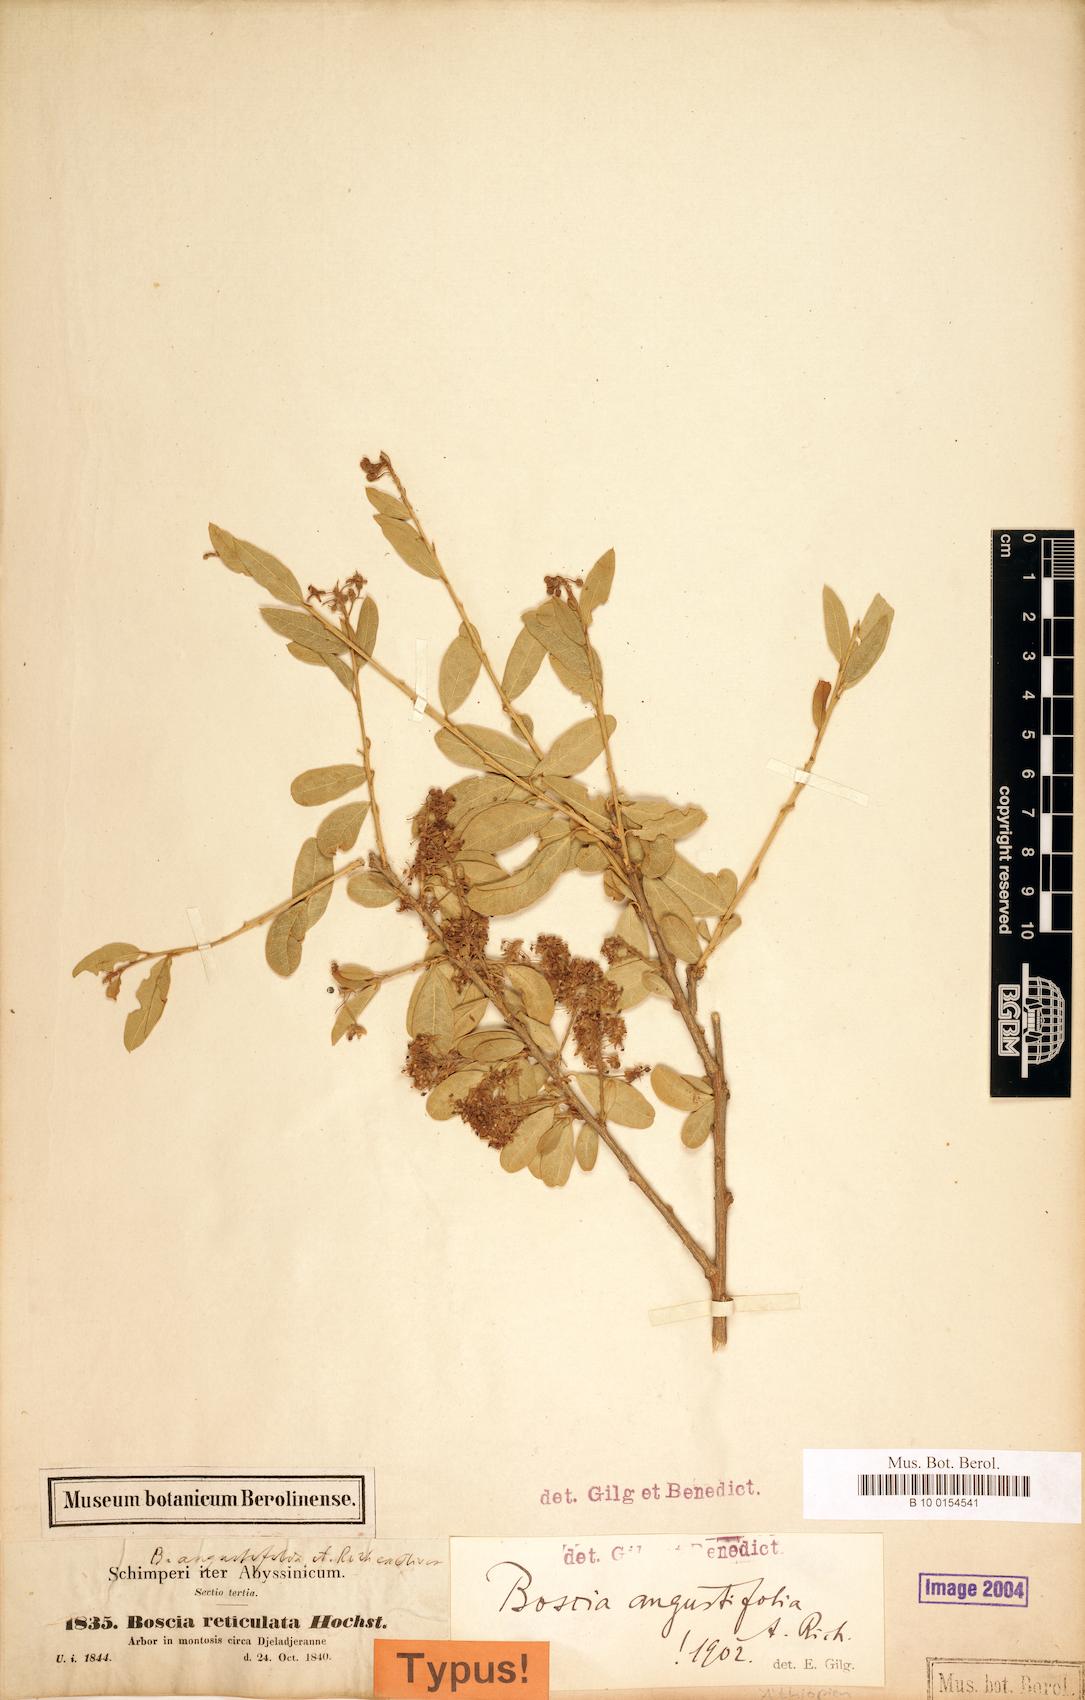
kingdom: Plantae
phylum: Tracheophyta
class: Magnoliopsida
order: Brassicales
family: Capparaceae
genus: Boscia
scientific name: Boscia angustifolia
